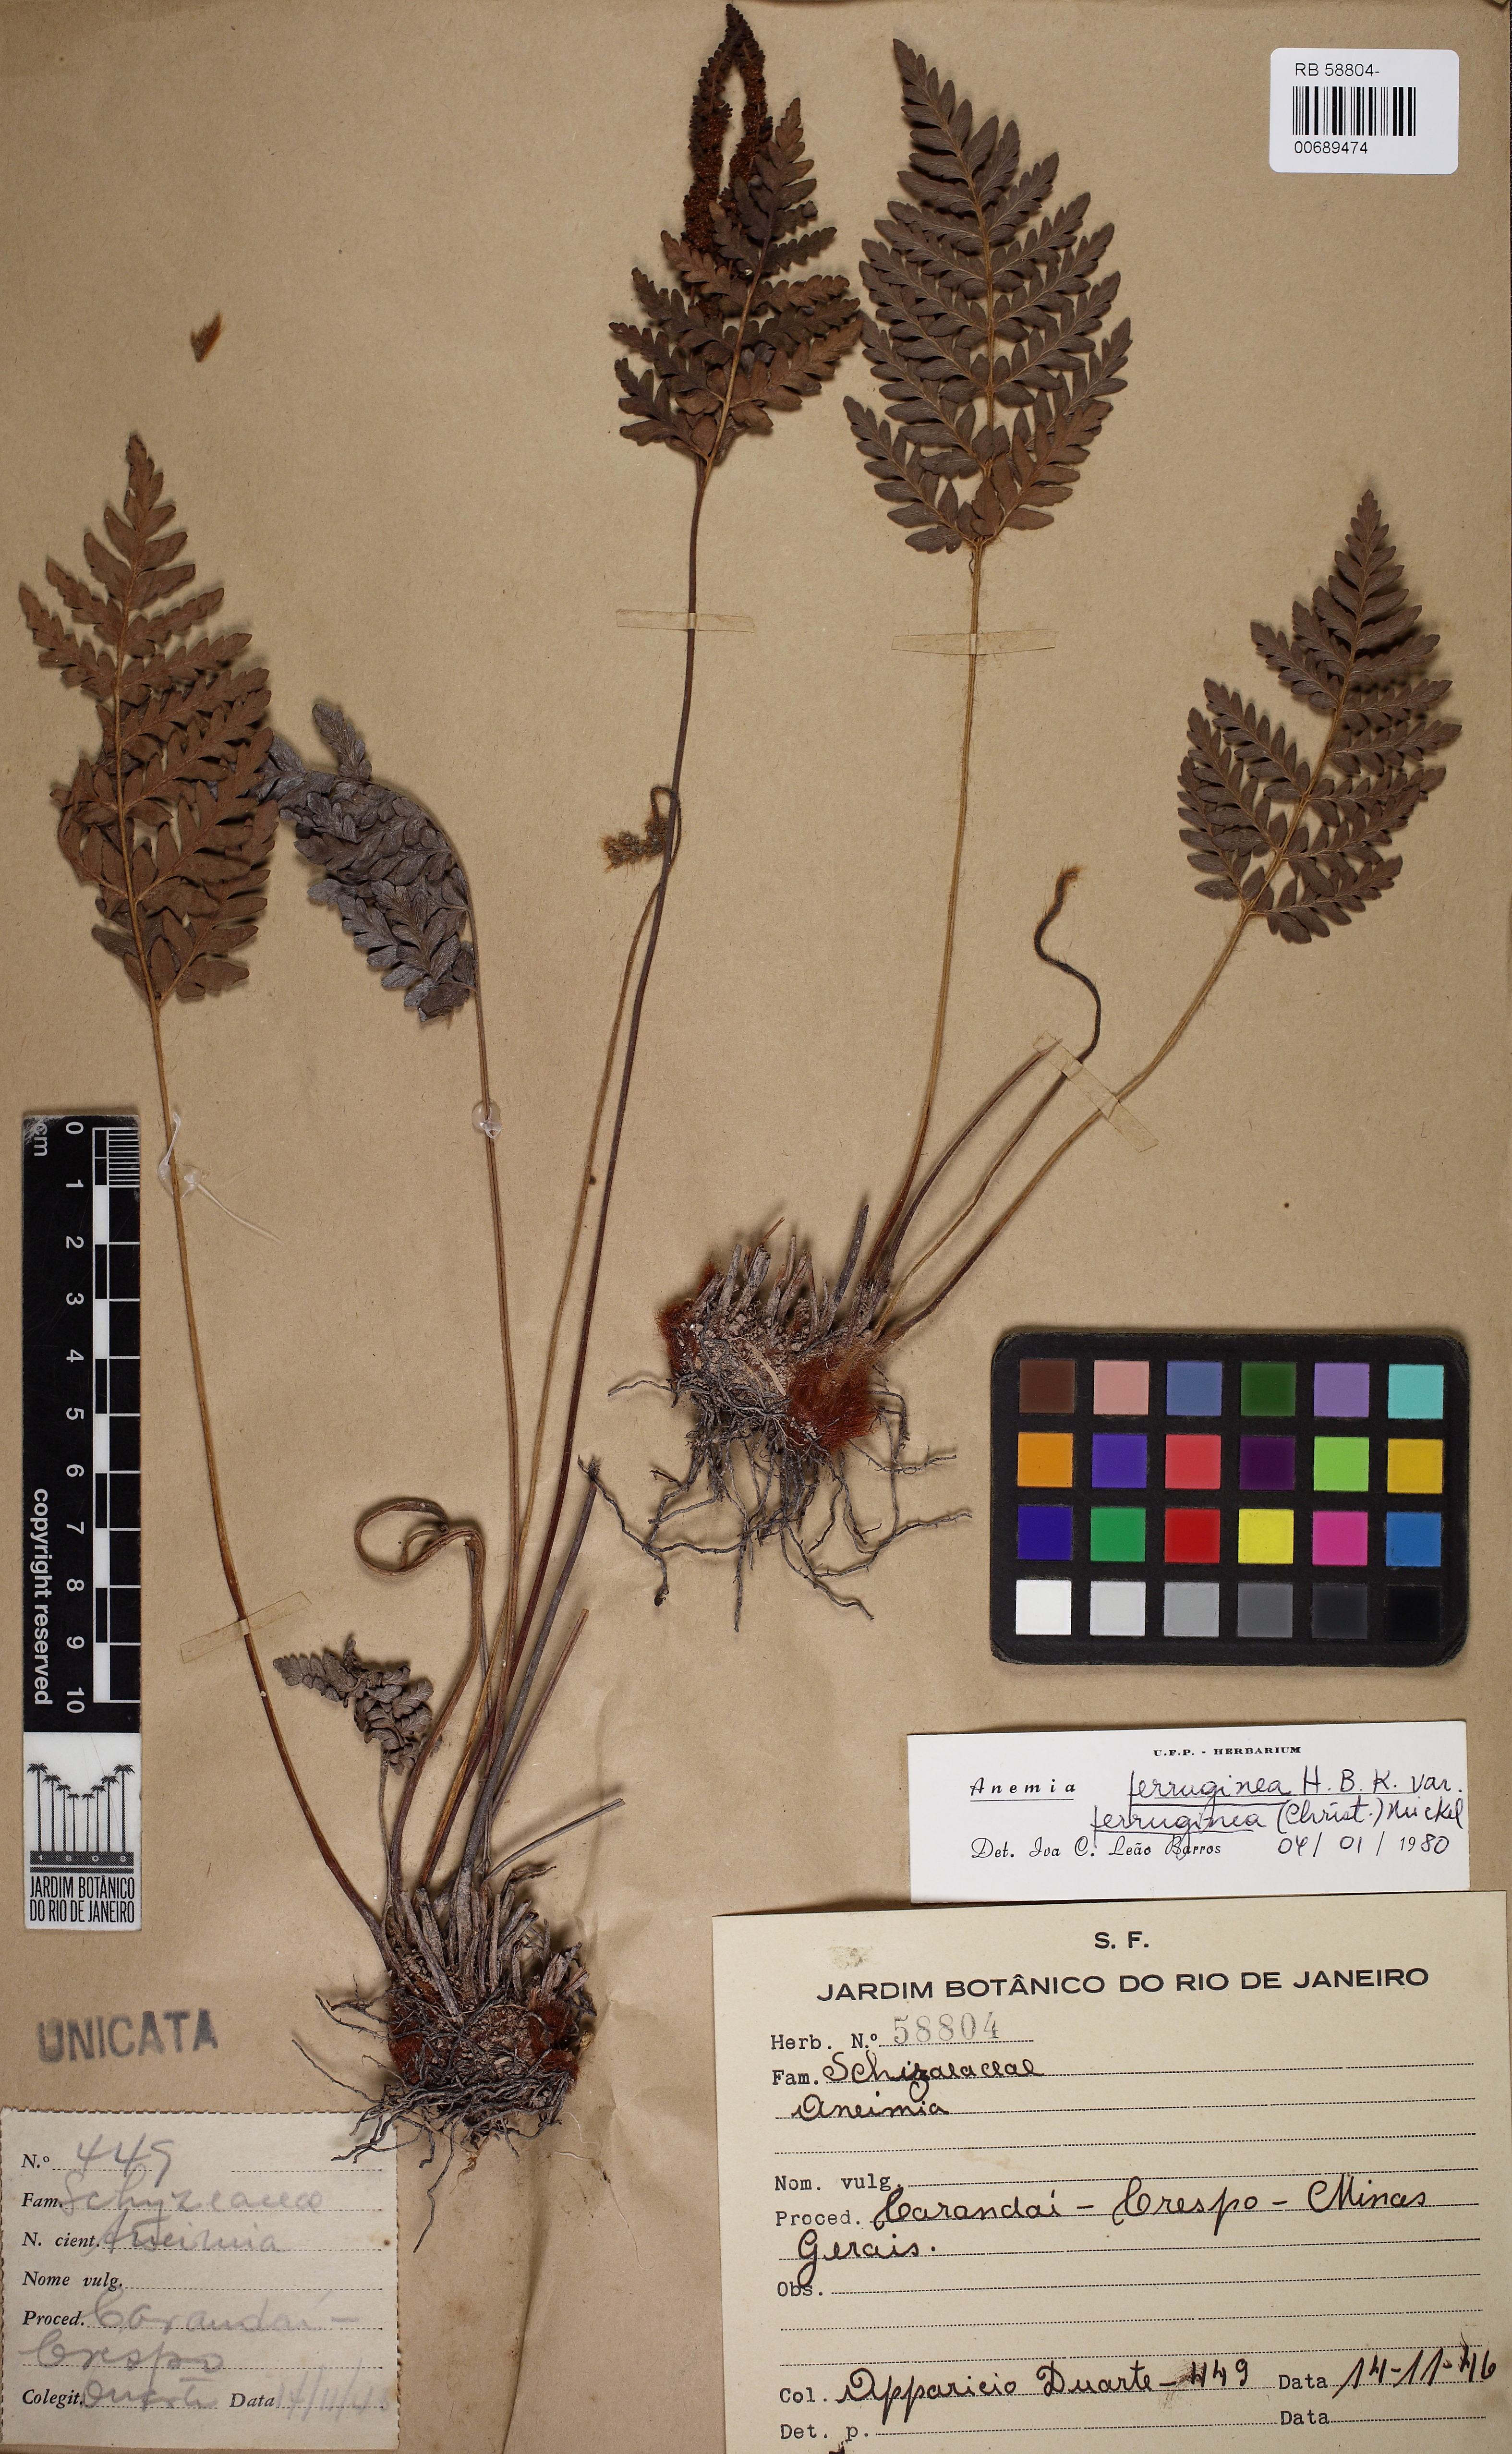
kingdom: Plantae
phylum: Tracheophyta
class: Polypodiopsida
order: Schizaeales
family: Anemiaceae
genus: Anemia
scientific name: Anemia ferruginea
